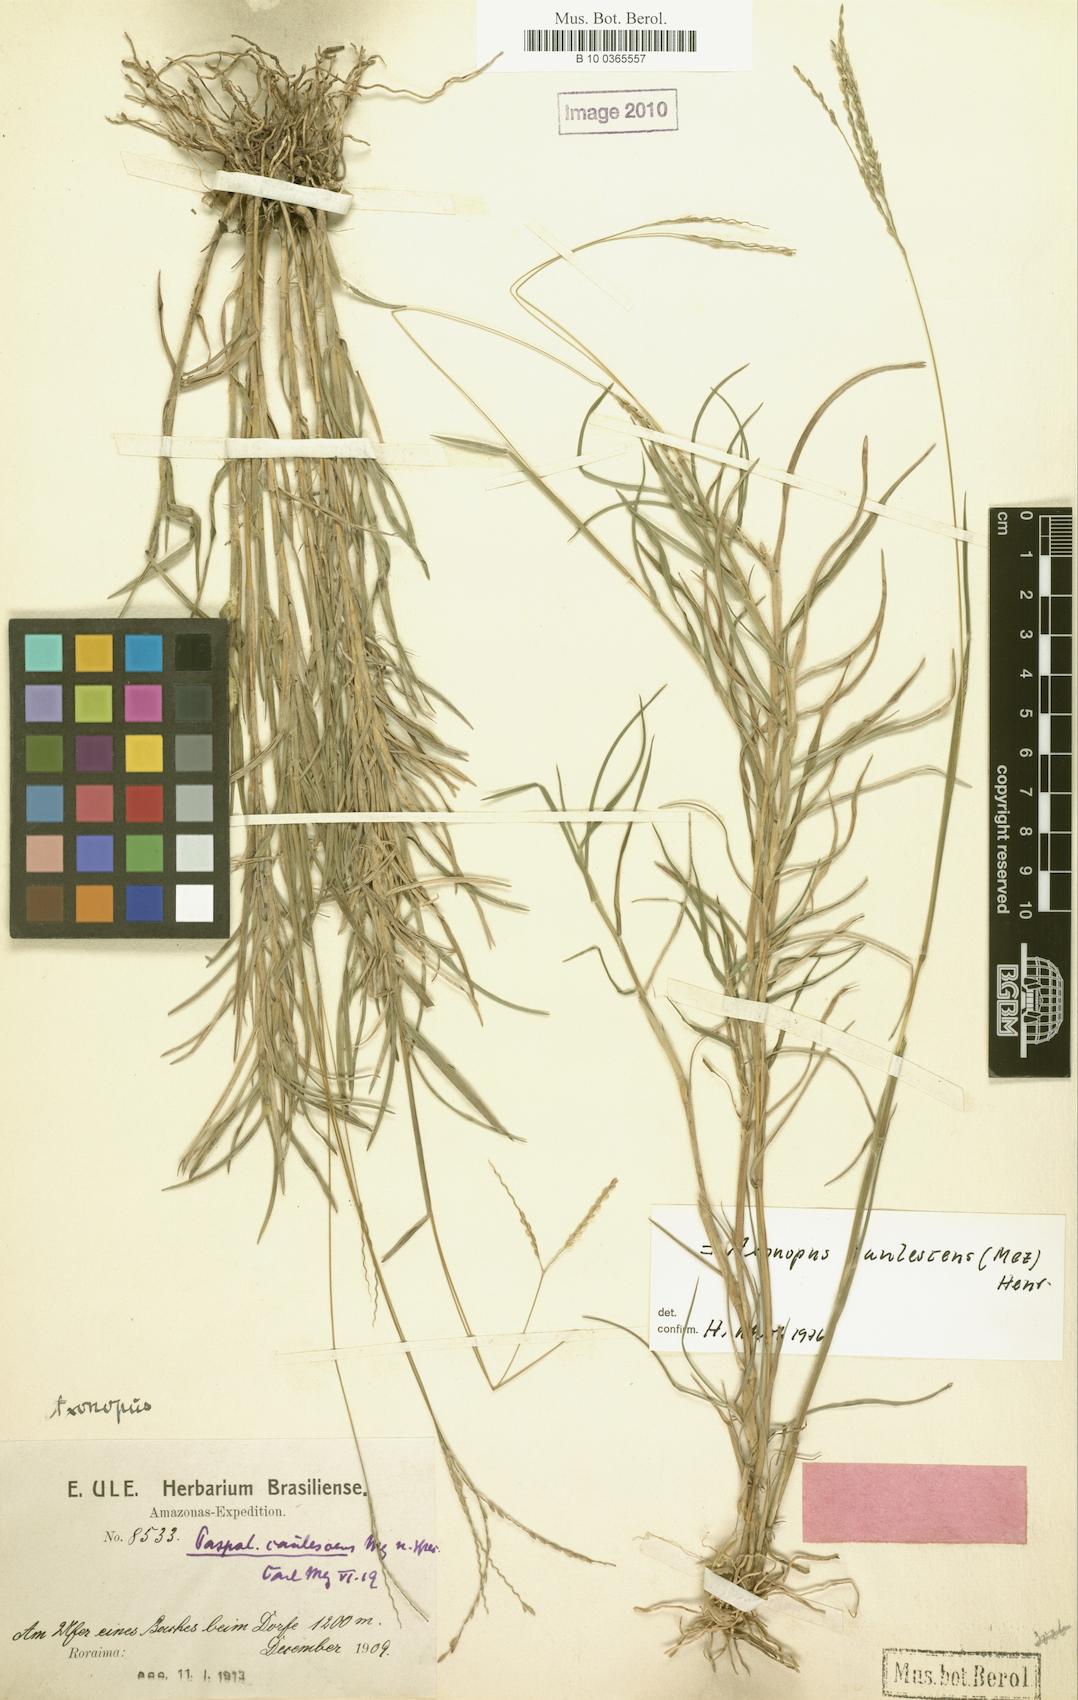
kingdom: Plantae
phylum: Tracheophyta
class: Liliopsida
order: Poales
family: Poaceae
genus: Axonopus
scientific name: Axonopus caulescens
